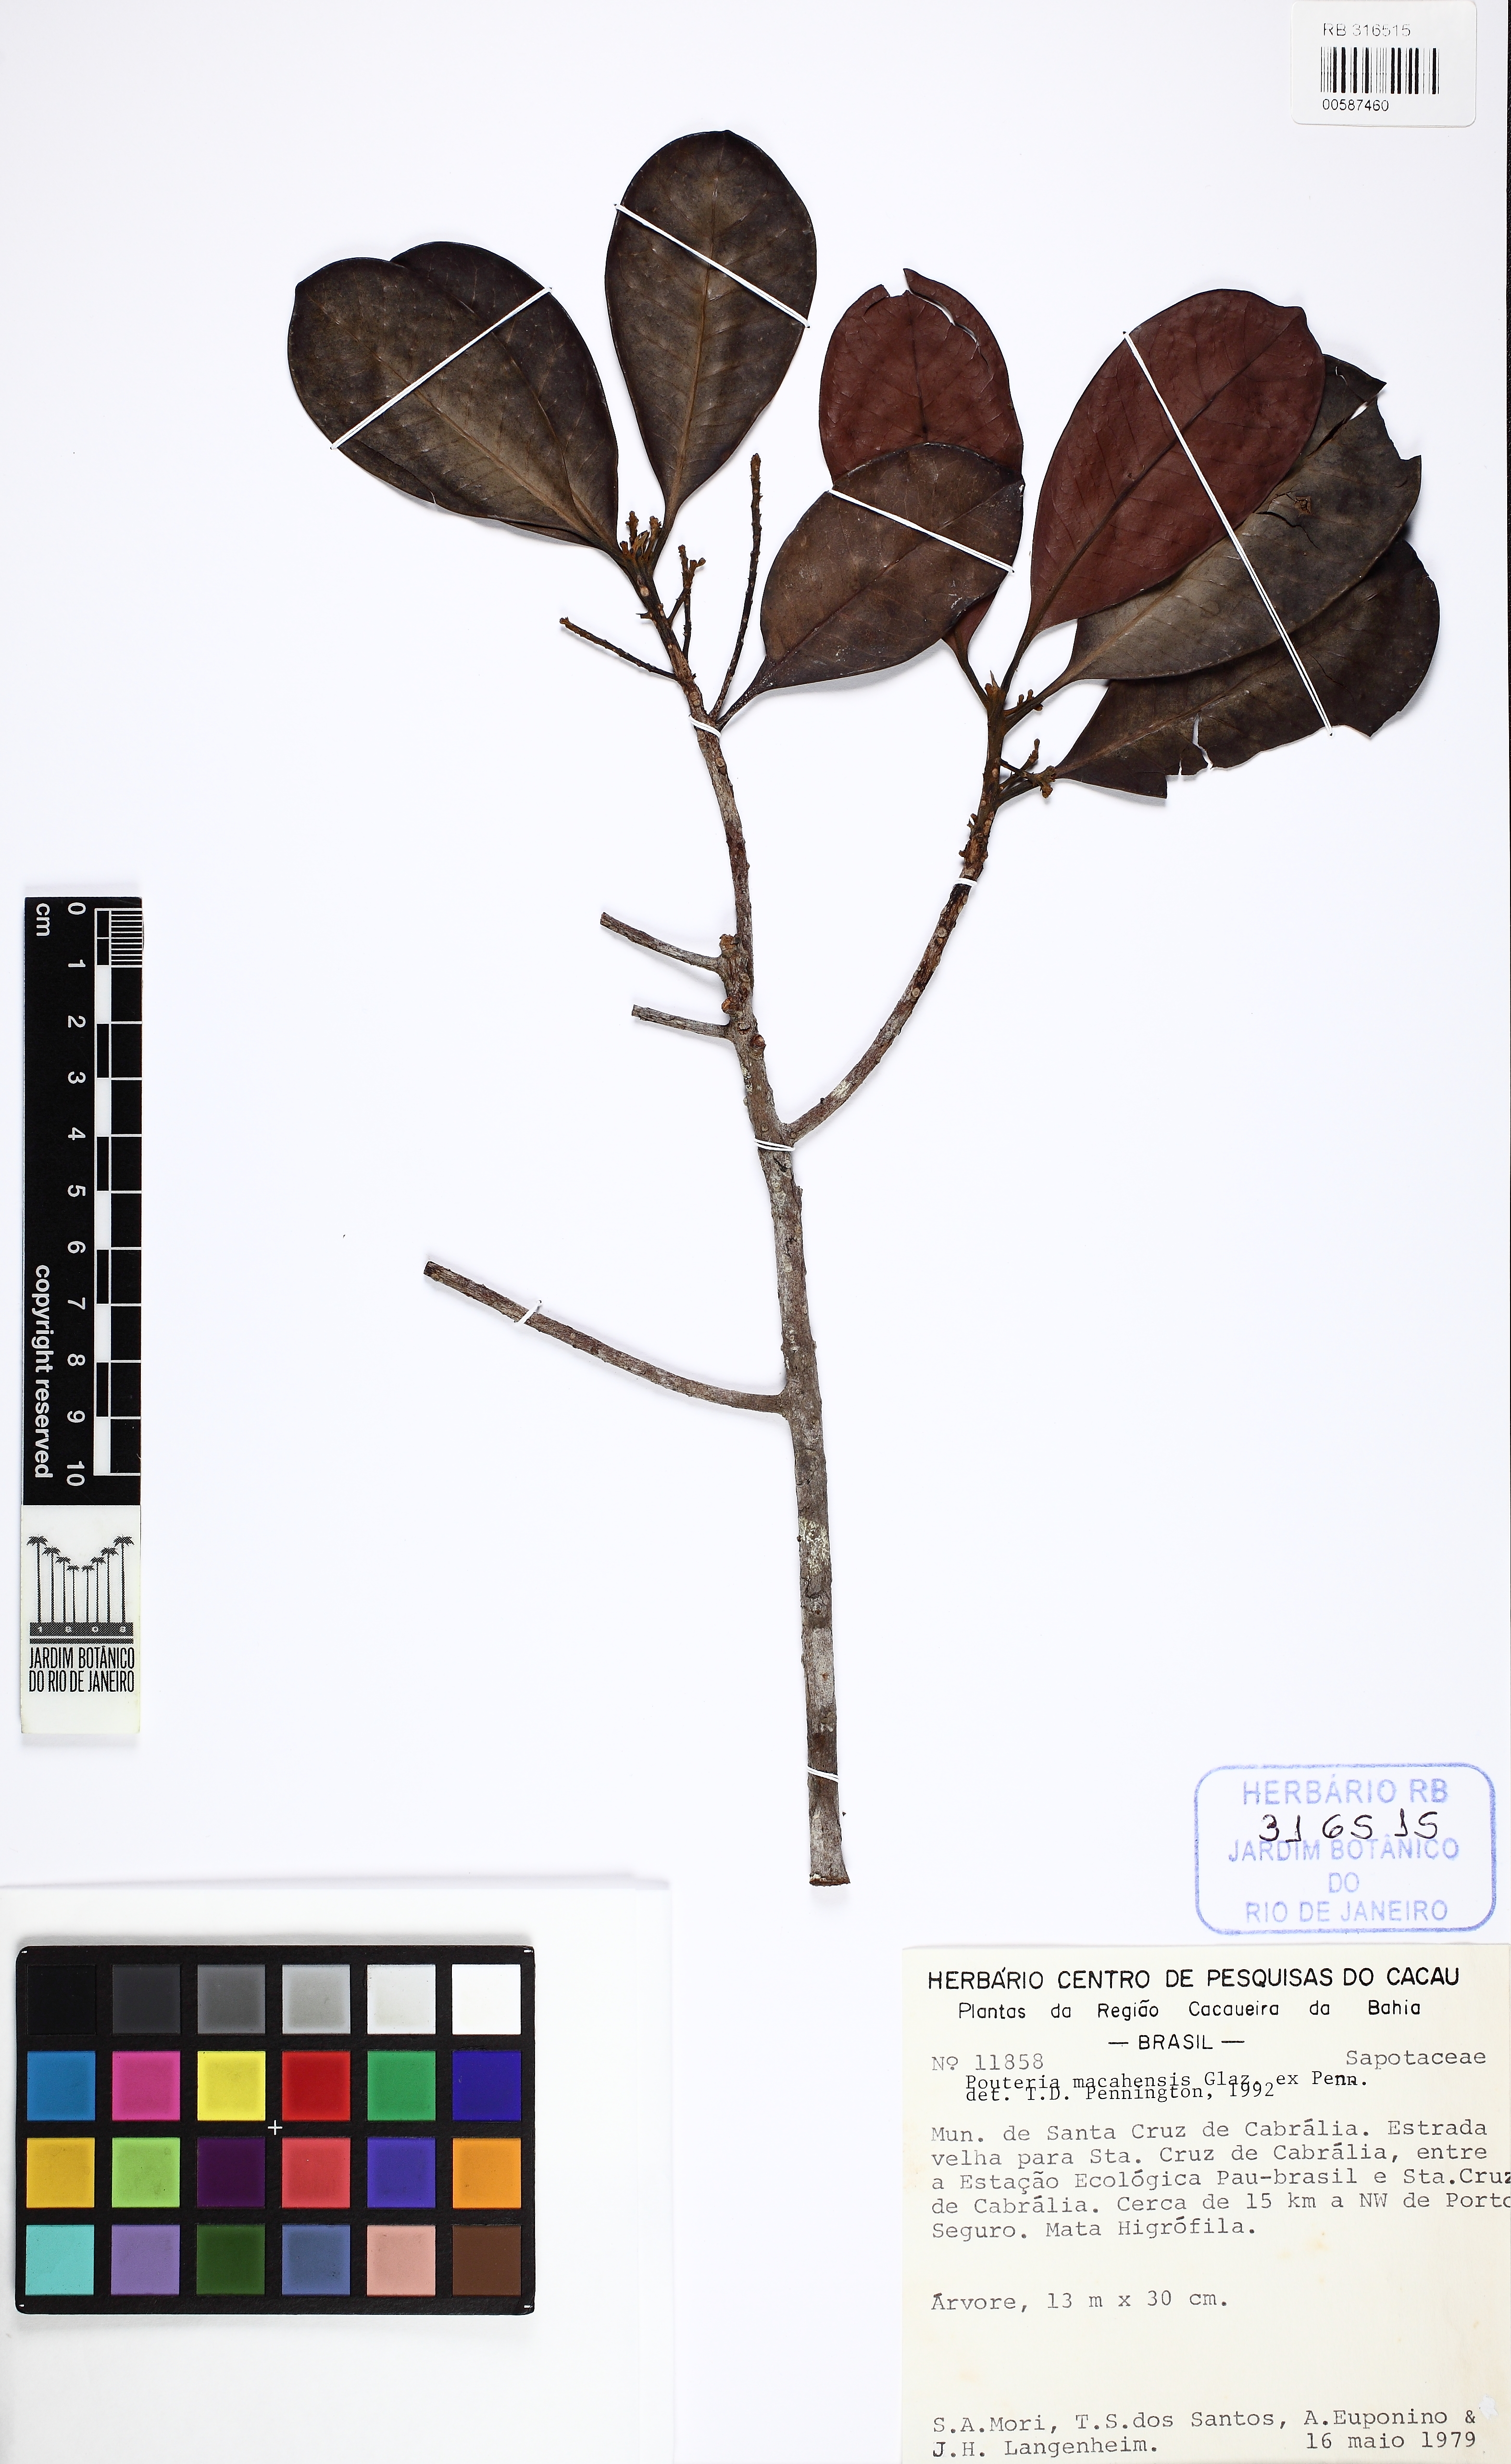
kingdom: Plantae
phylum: Tracheophyta
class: Magnoliopsida
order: Ericales
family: Sapotaceae
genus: Pouteria
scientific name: Pouteria macahensis
